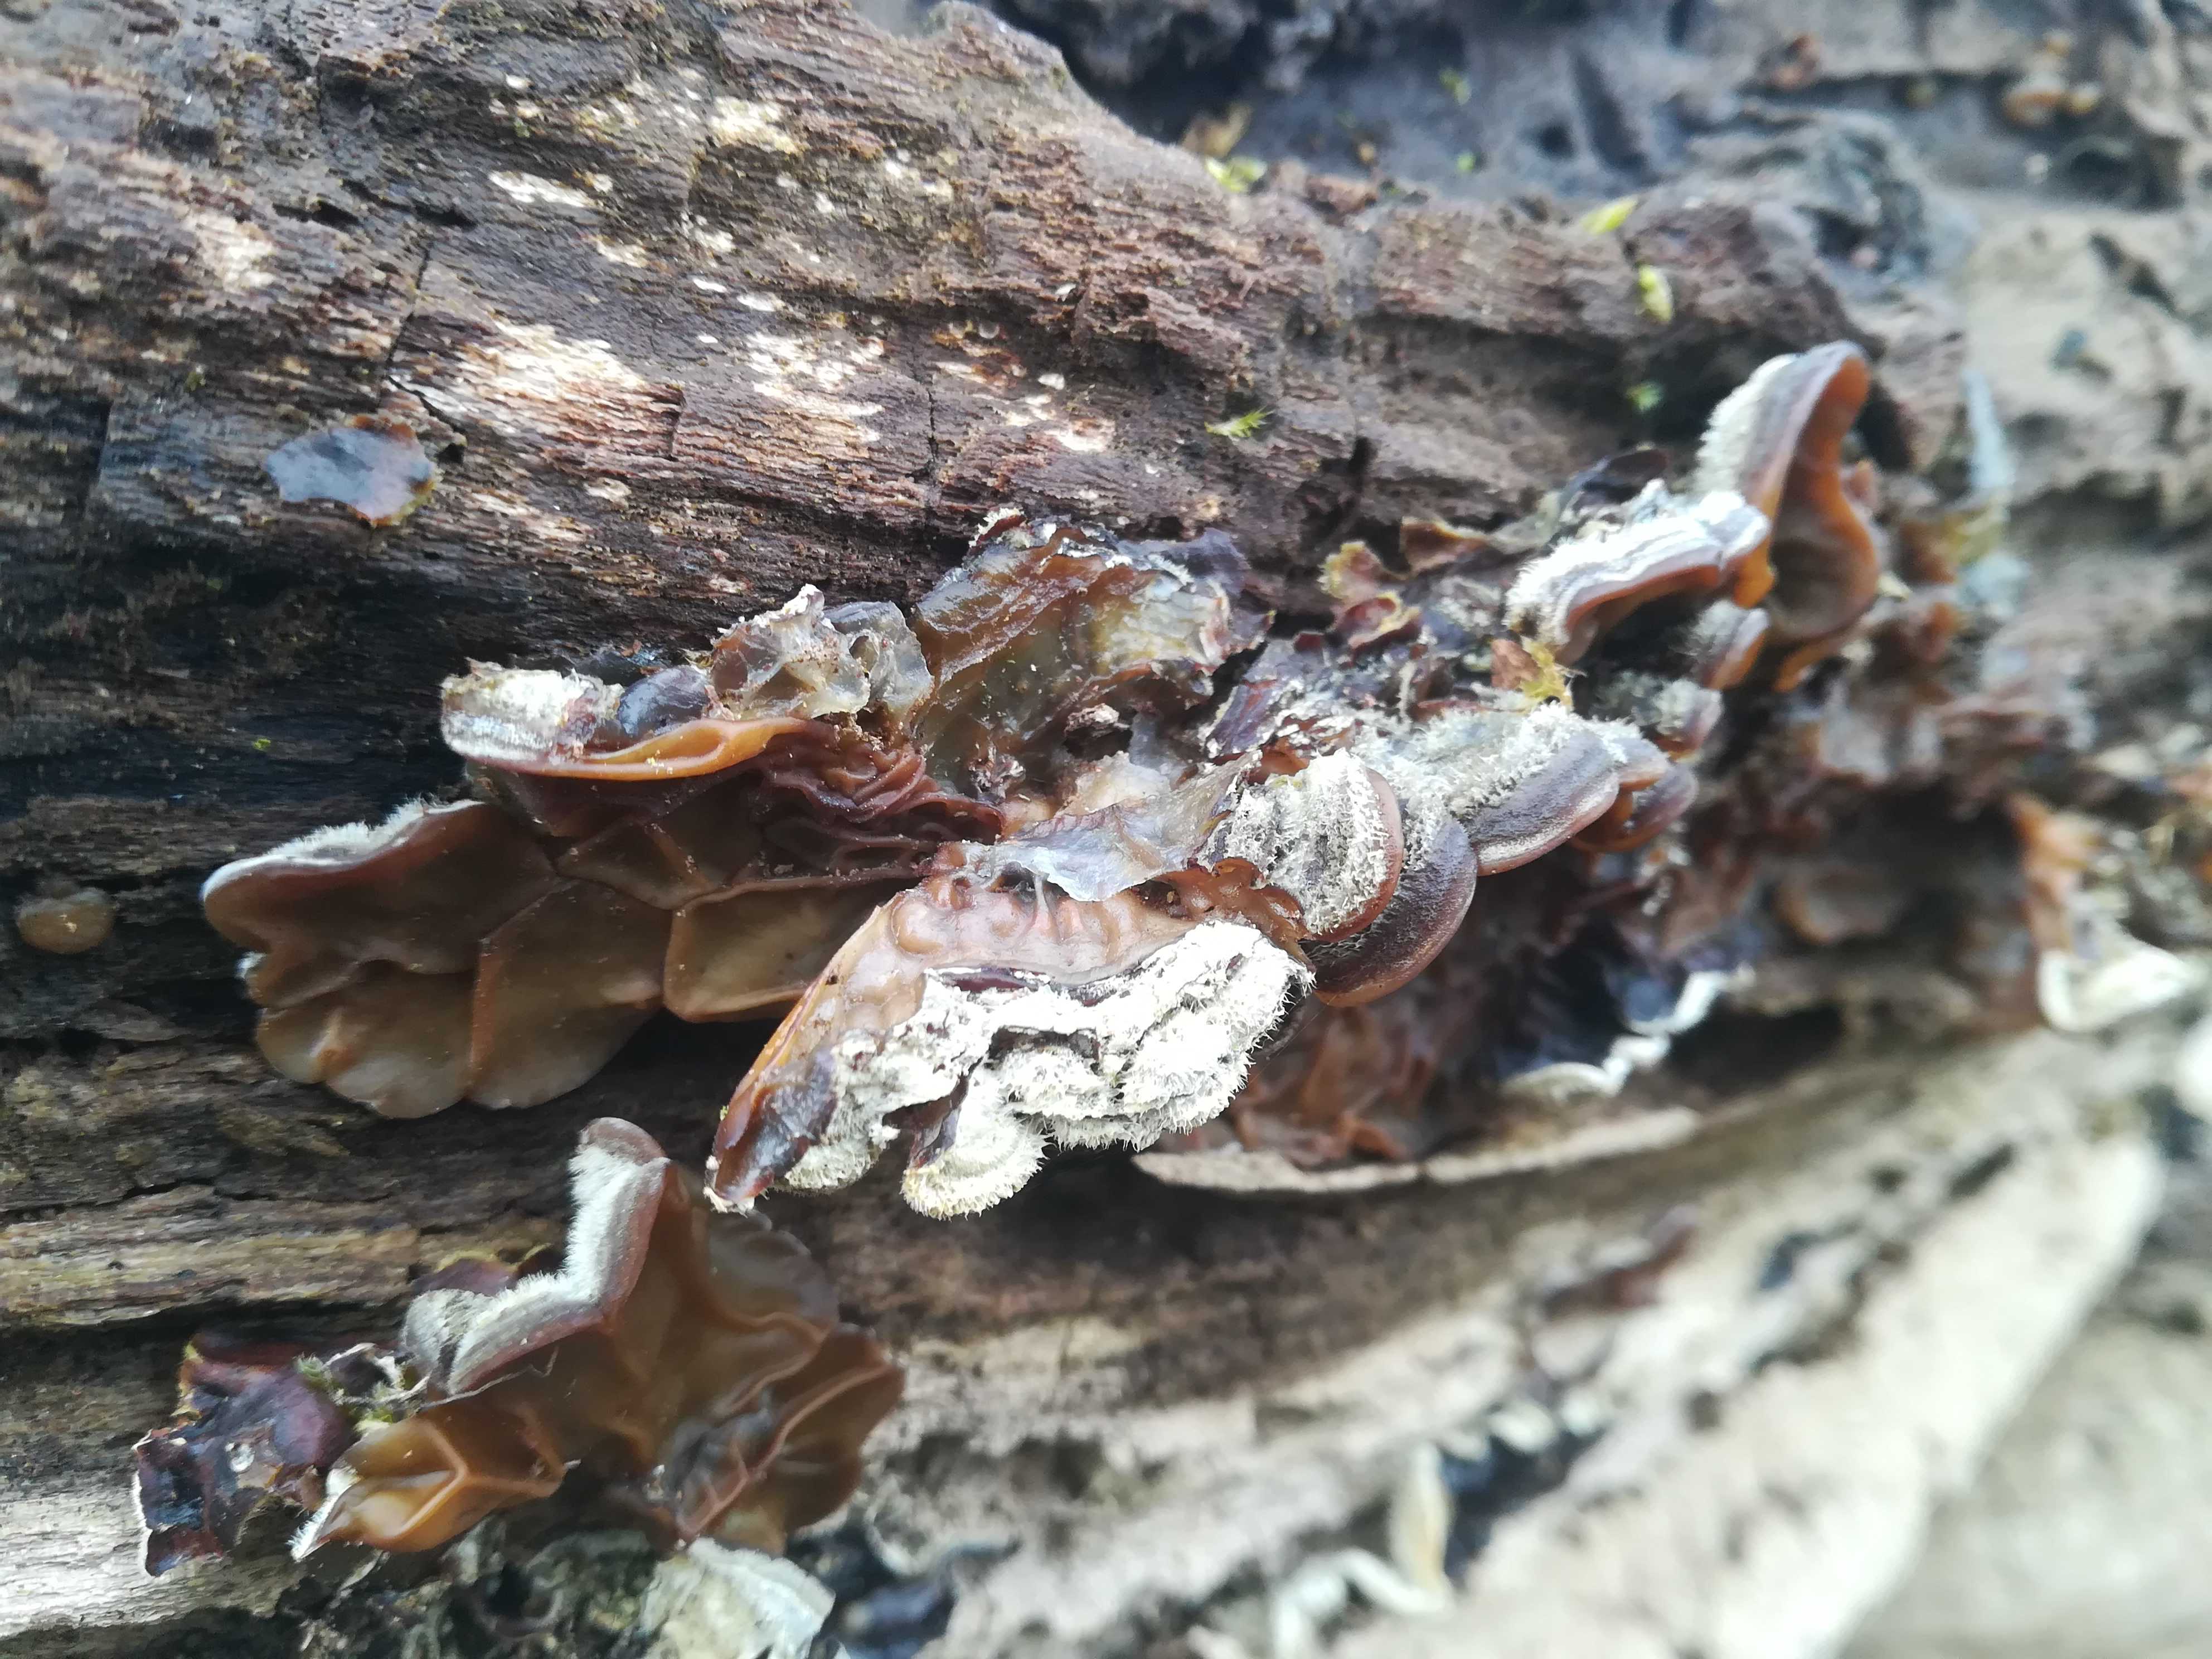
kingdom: Fungi
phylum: Basidiomycota
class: Agaricomycetes
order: Auriculariales
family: Auriculariaceae
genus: Auricularia
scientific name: Auricularia mesenterica
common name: håret judasøre
